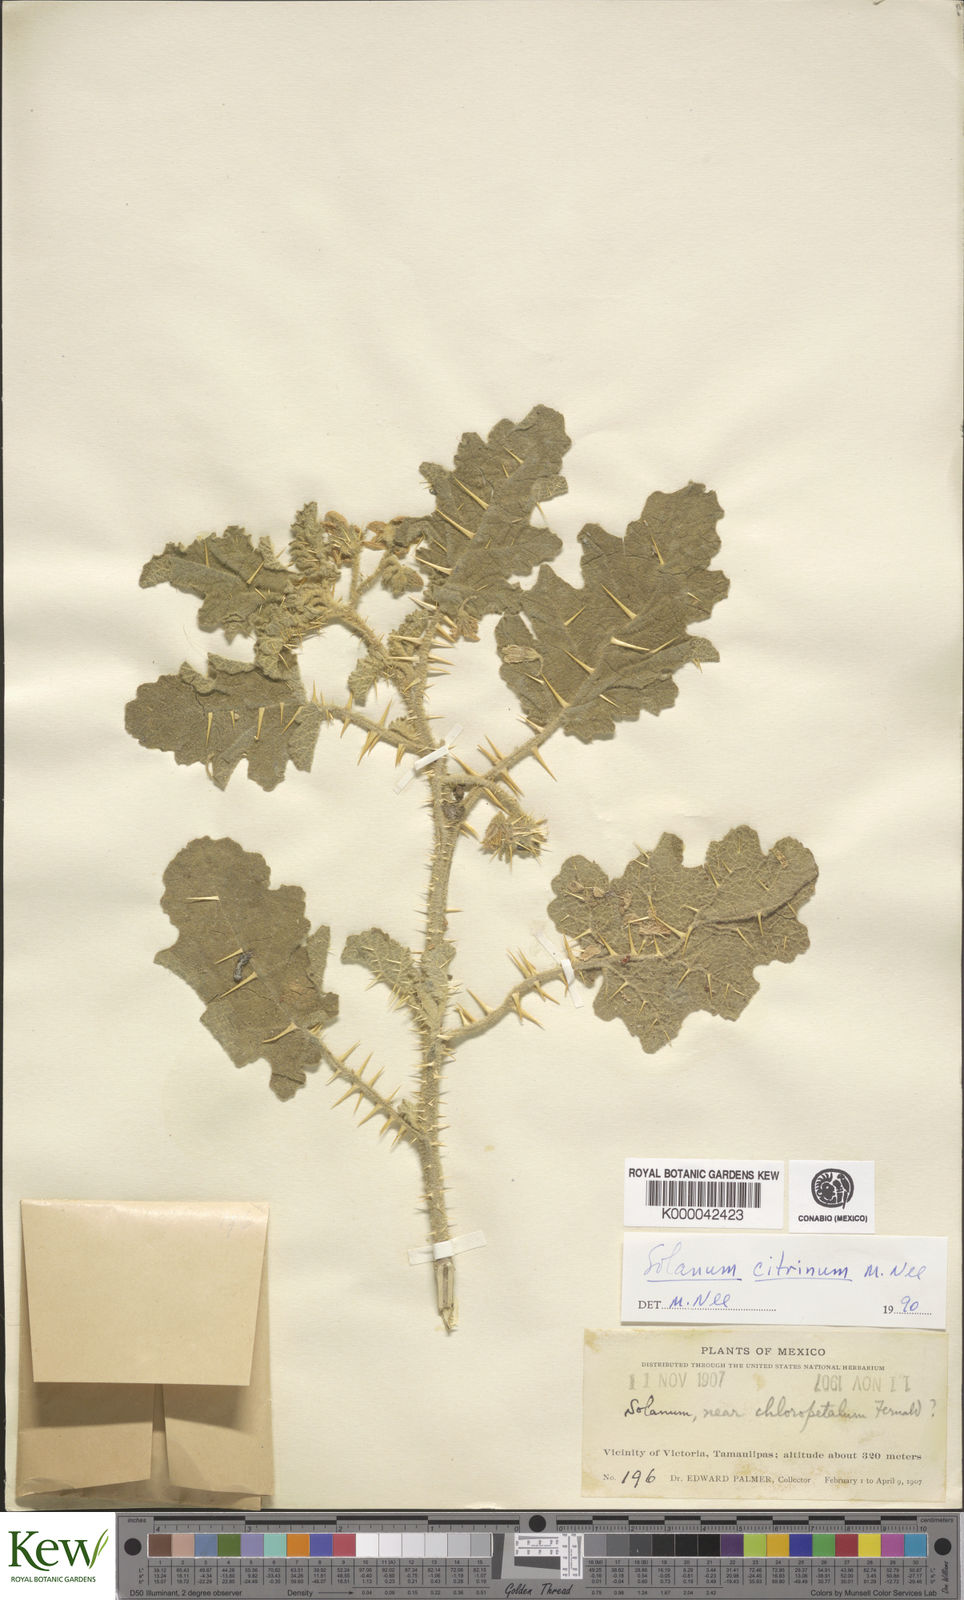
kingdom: Plantae
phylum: Tracheophyta
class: Magnoliopsida
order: Solanales
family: Solanaceae
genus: Solanum
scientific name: Solanum citrinum
